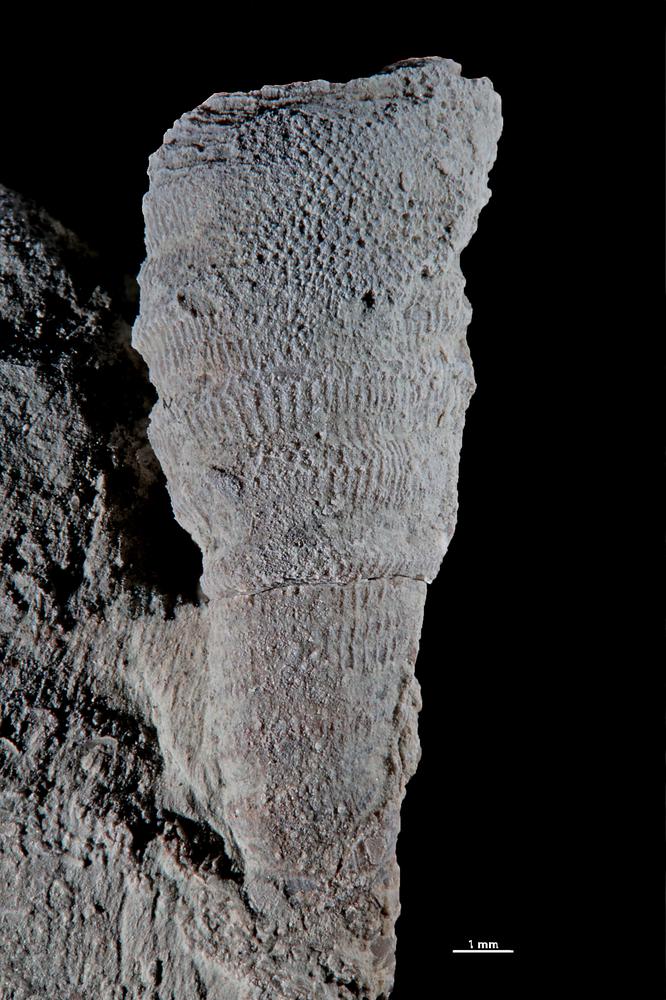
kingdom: Animalia
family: Cornulitidae
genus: Cornulites
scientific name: Cornulites
